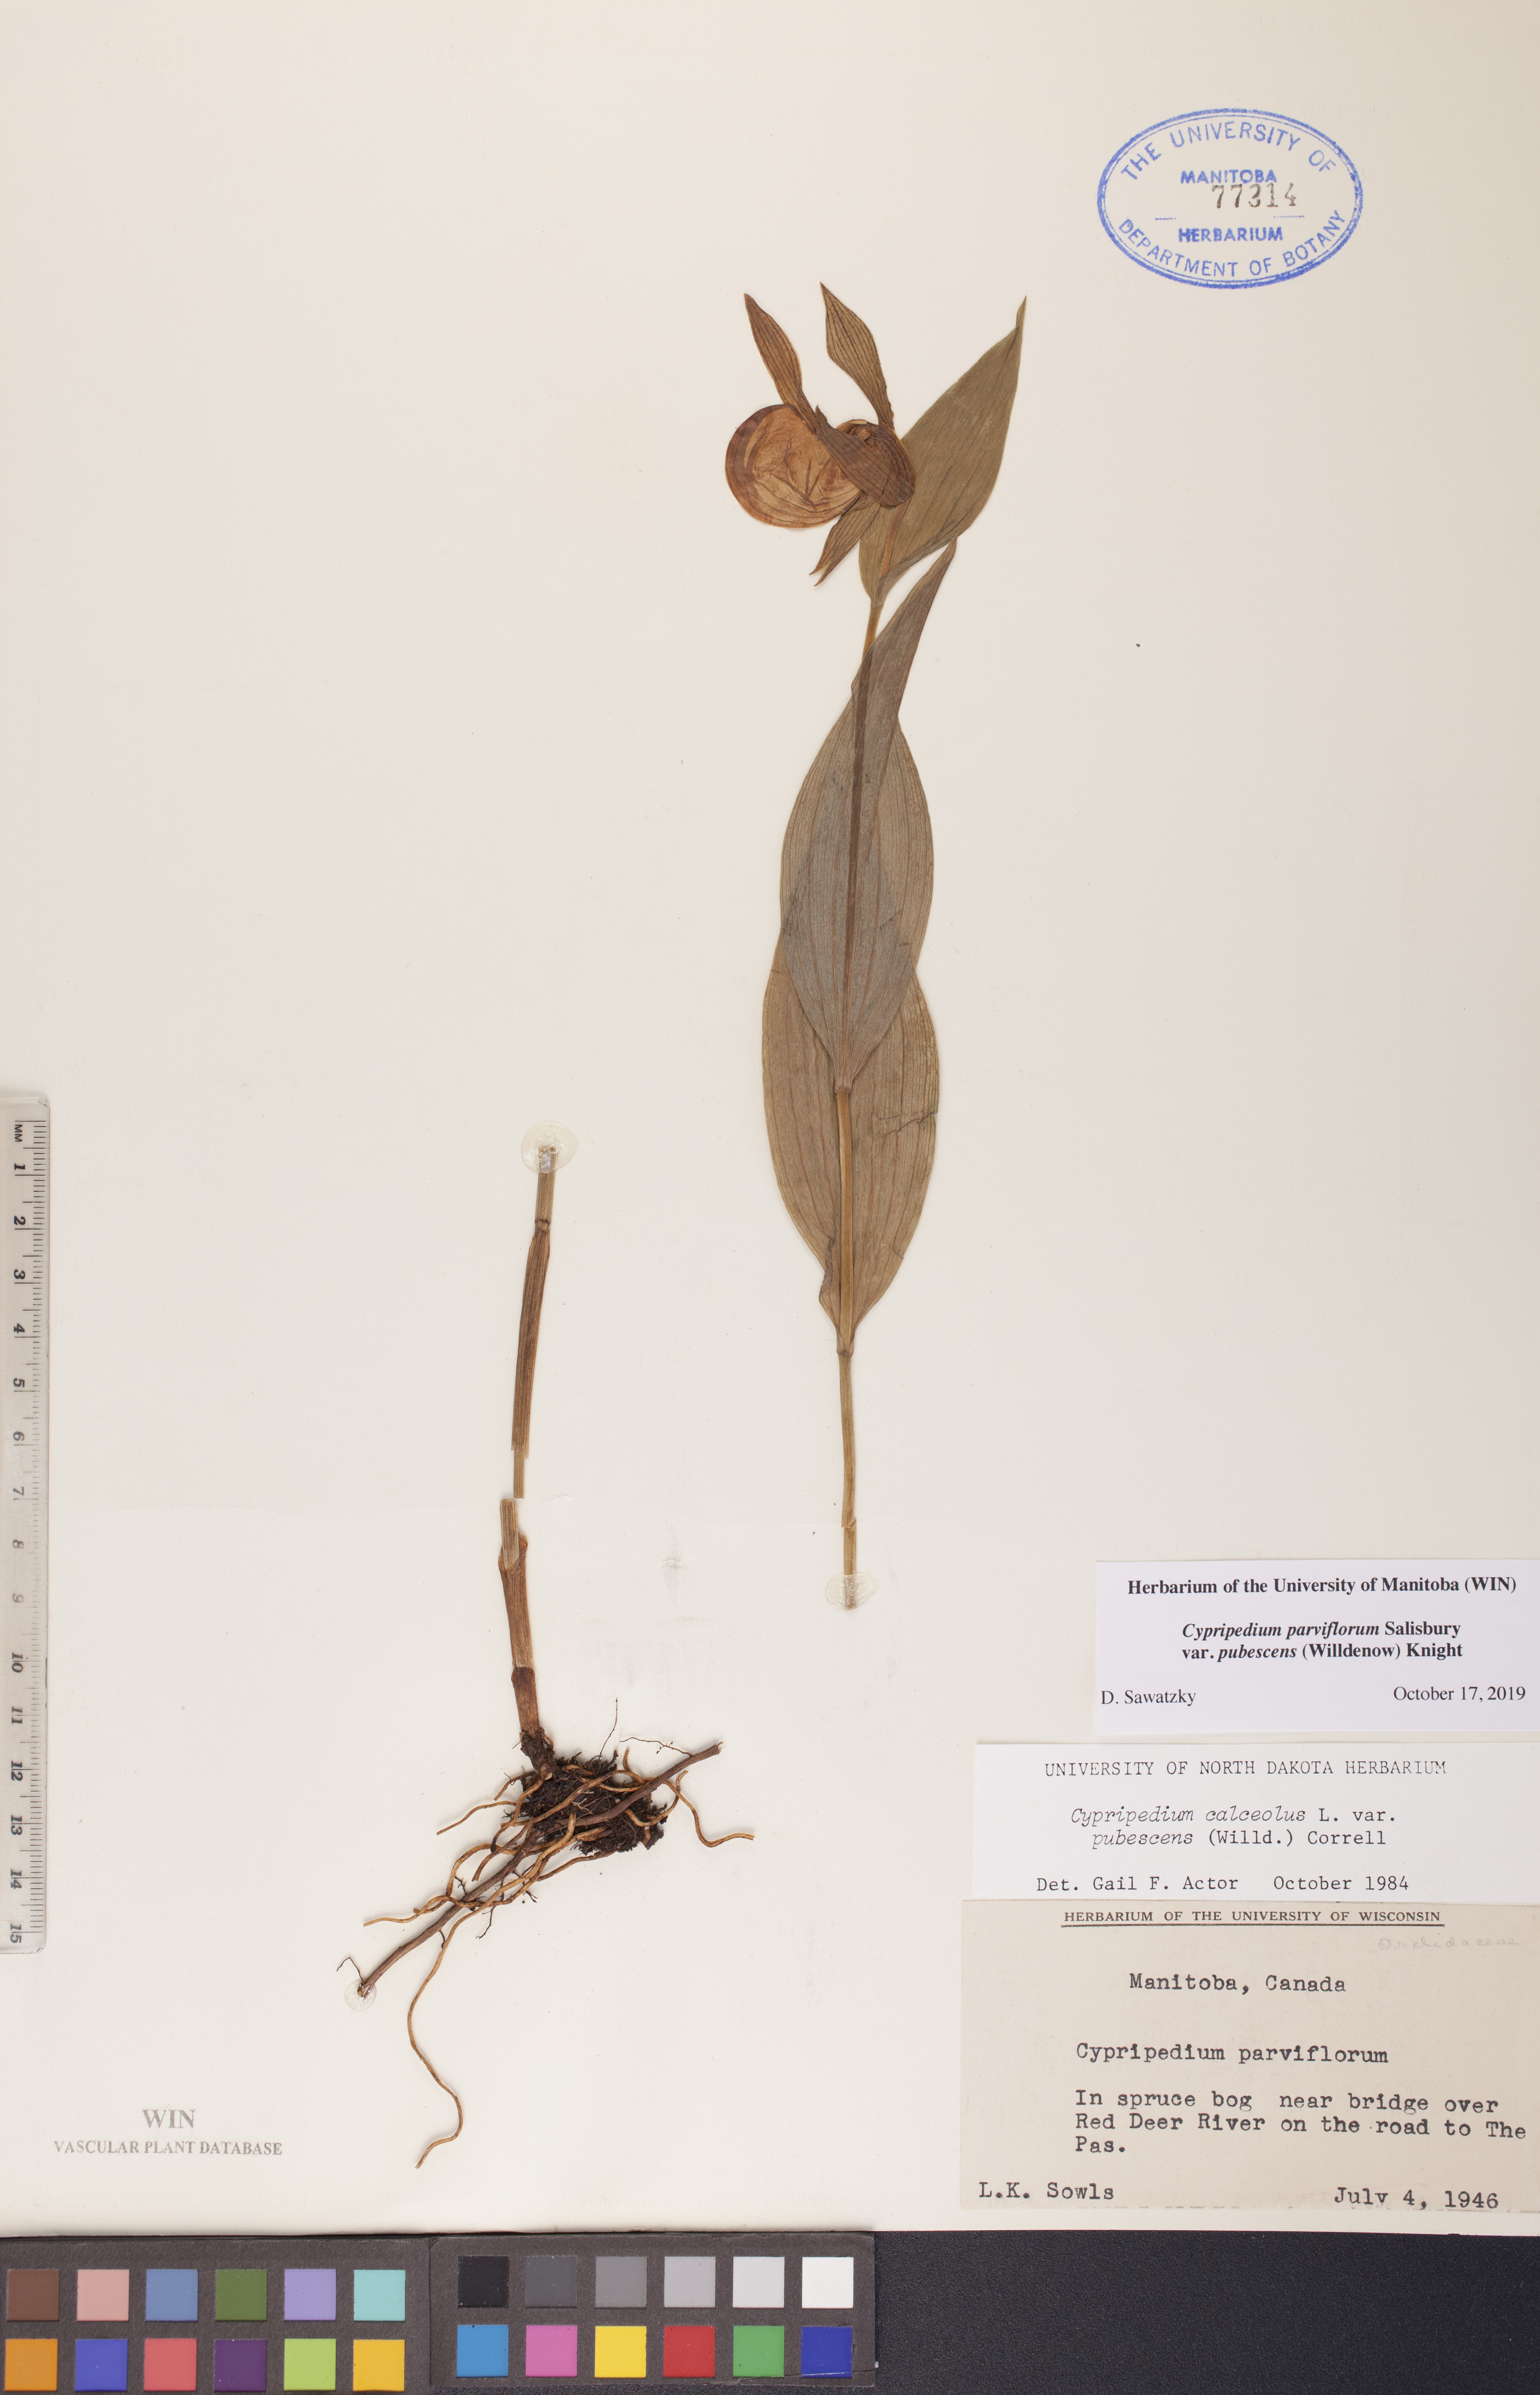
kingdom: Plantae
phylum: Tracheophyta
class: Liliopsida
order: Asparagales
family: Orchidaceae
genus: Cypripedium
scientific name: Cypripedium parviflorum
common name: American yellow lady's-slipper
